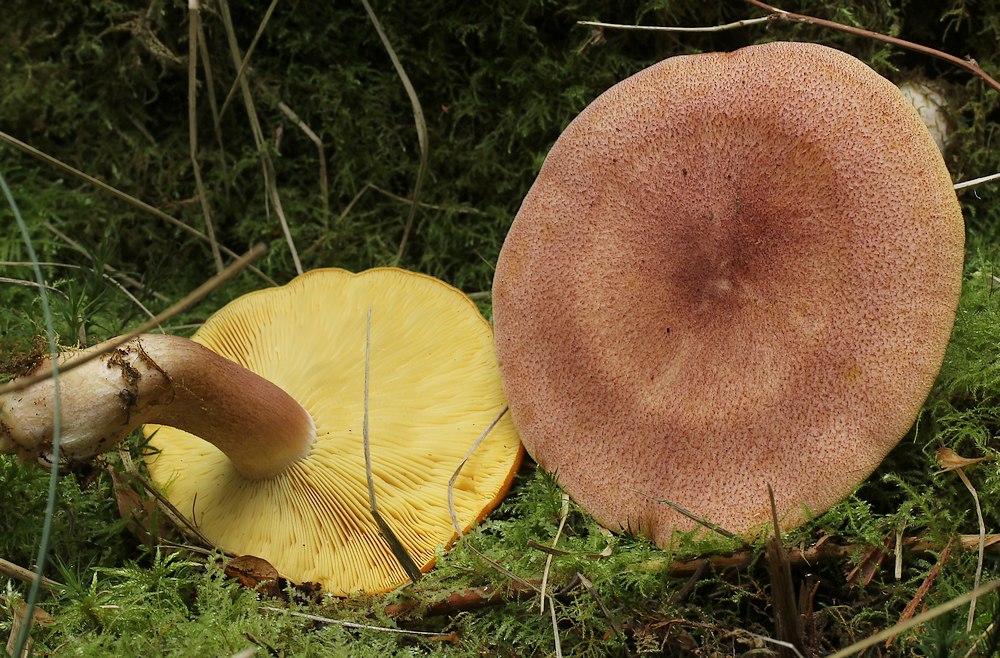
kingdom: Fungi
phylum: Basidiomycota
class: Agaricomycetes
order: Agaricales
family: Tricholomataceae
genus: Tricholomopsis
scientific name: Tricholomopsis rutilans
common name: purpur-væbnerhat
